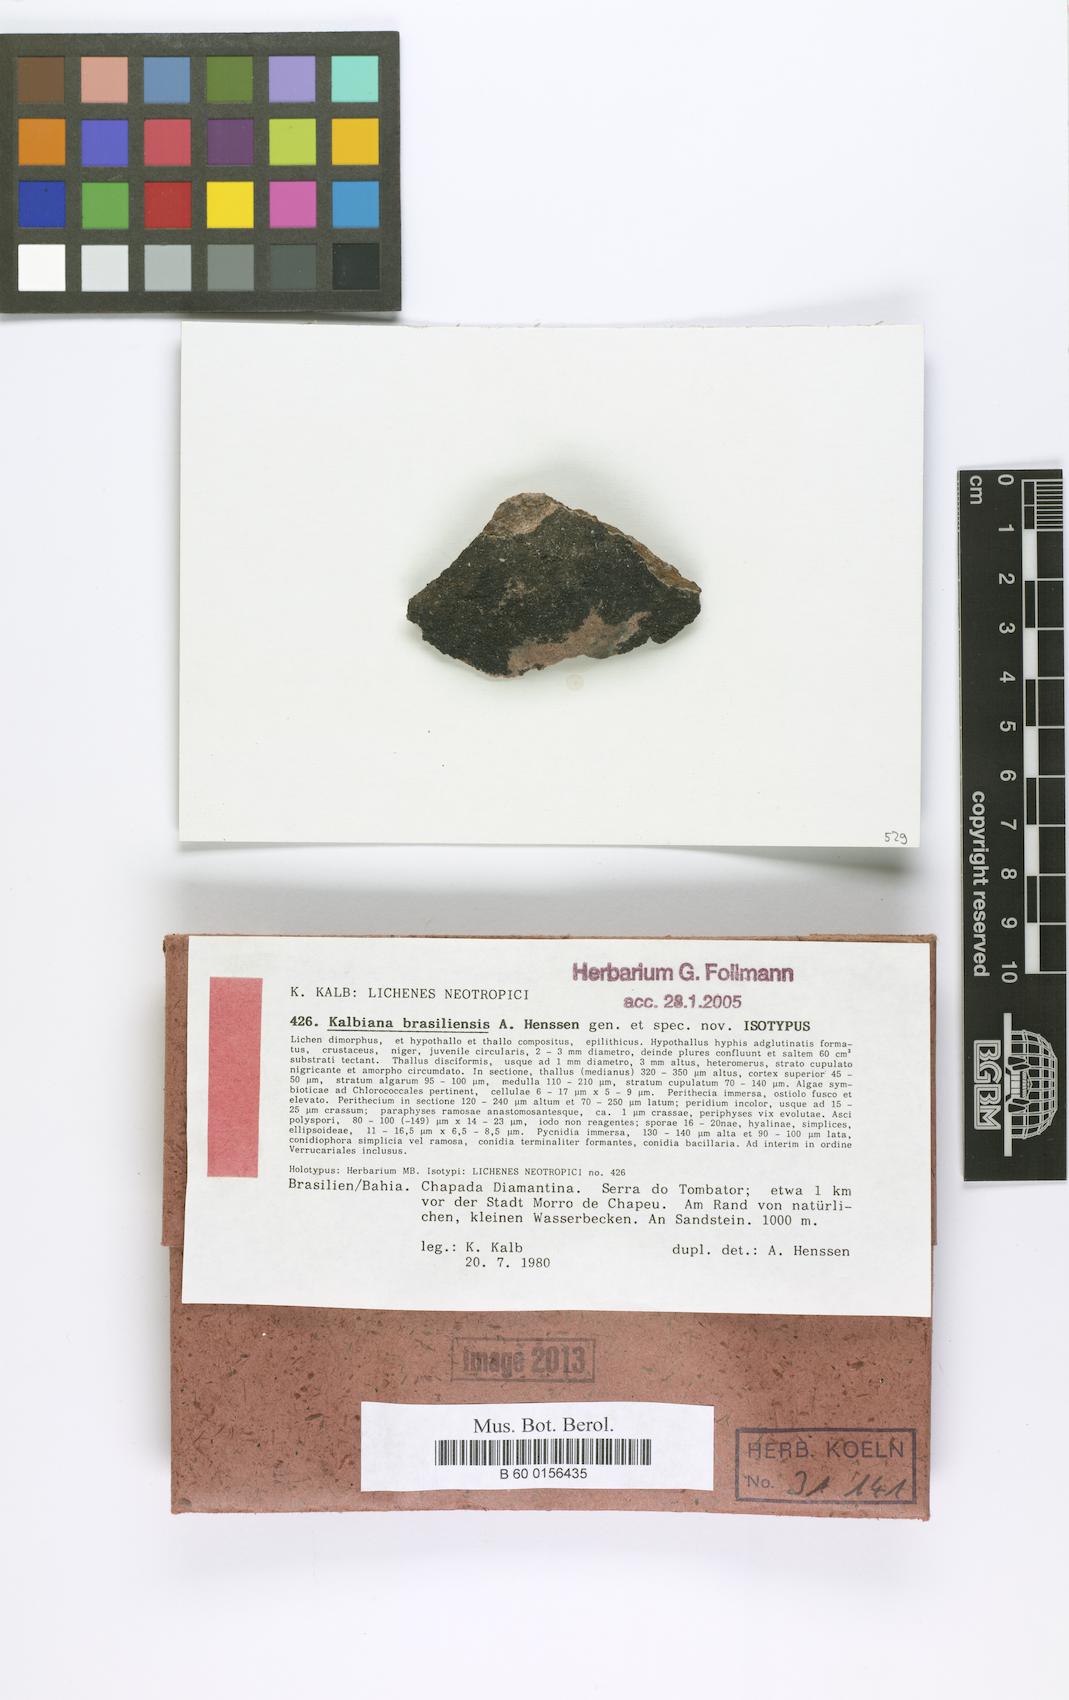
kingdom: Fungi
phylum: Ascomycota
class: Eurotiomycetes
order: Verrucariales
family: Verrucariaceae
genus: Kalbiana
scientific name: Kalbiana brasiliensis
